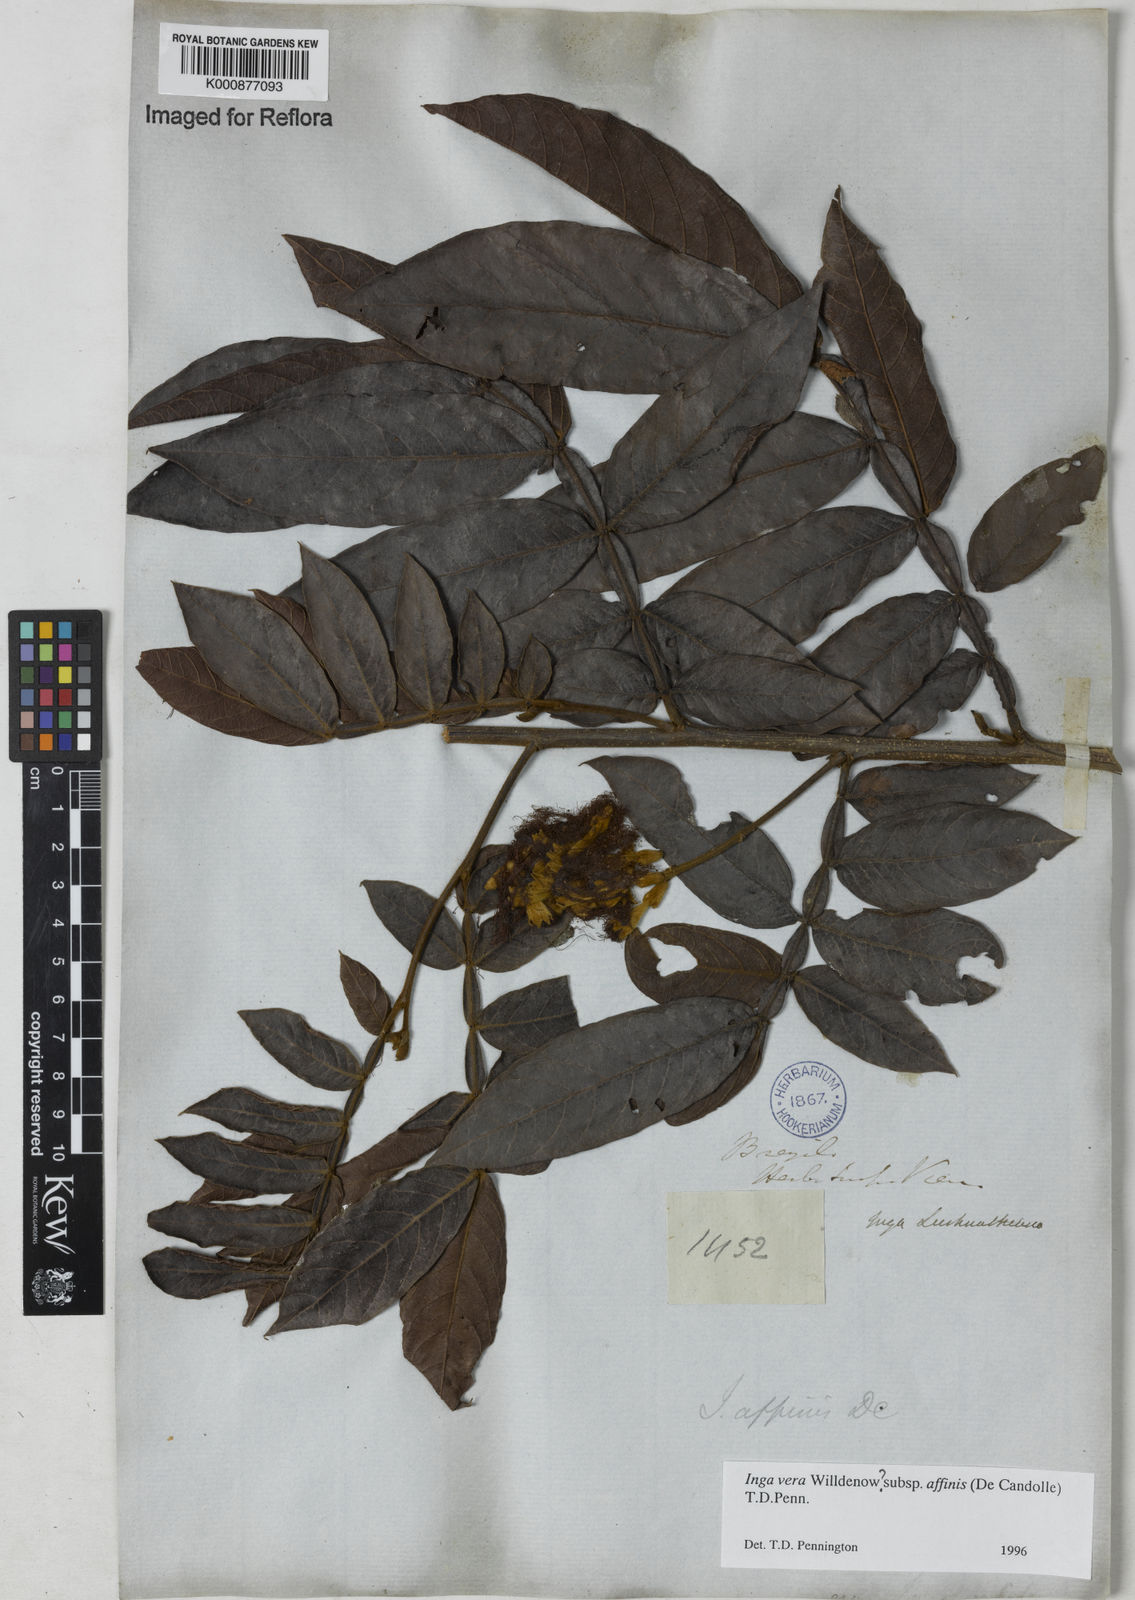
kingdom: Plantae
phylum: Tracheophyta
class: Magnoliopsida
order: Fabales
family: Fabaceae
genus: Inga
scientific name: Inga affinis
